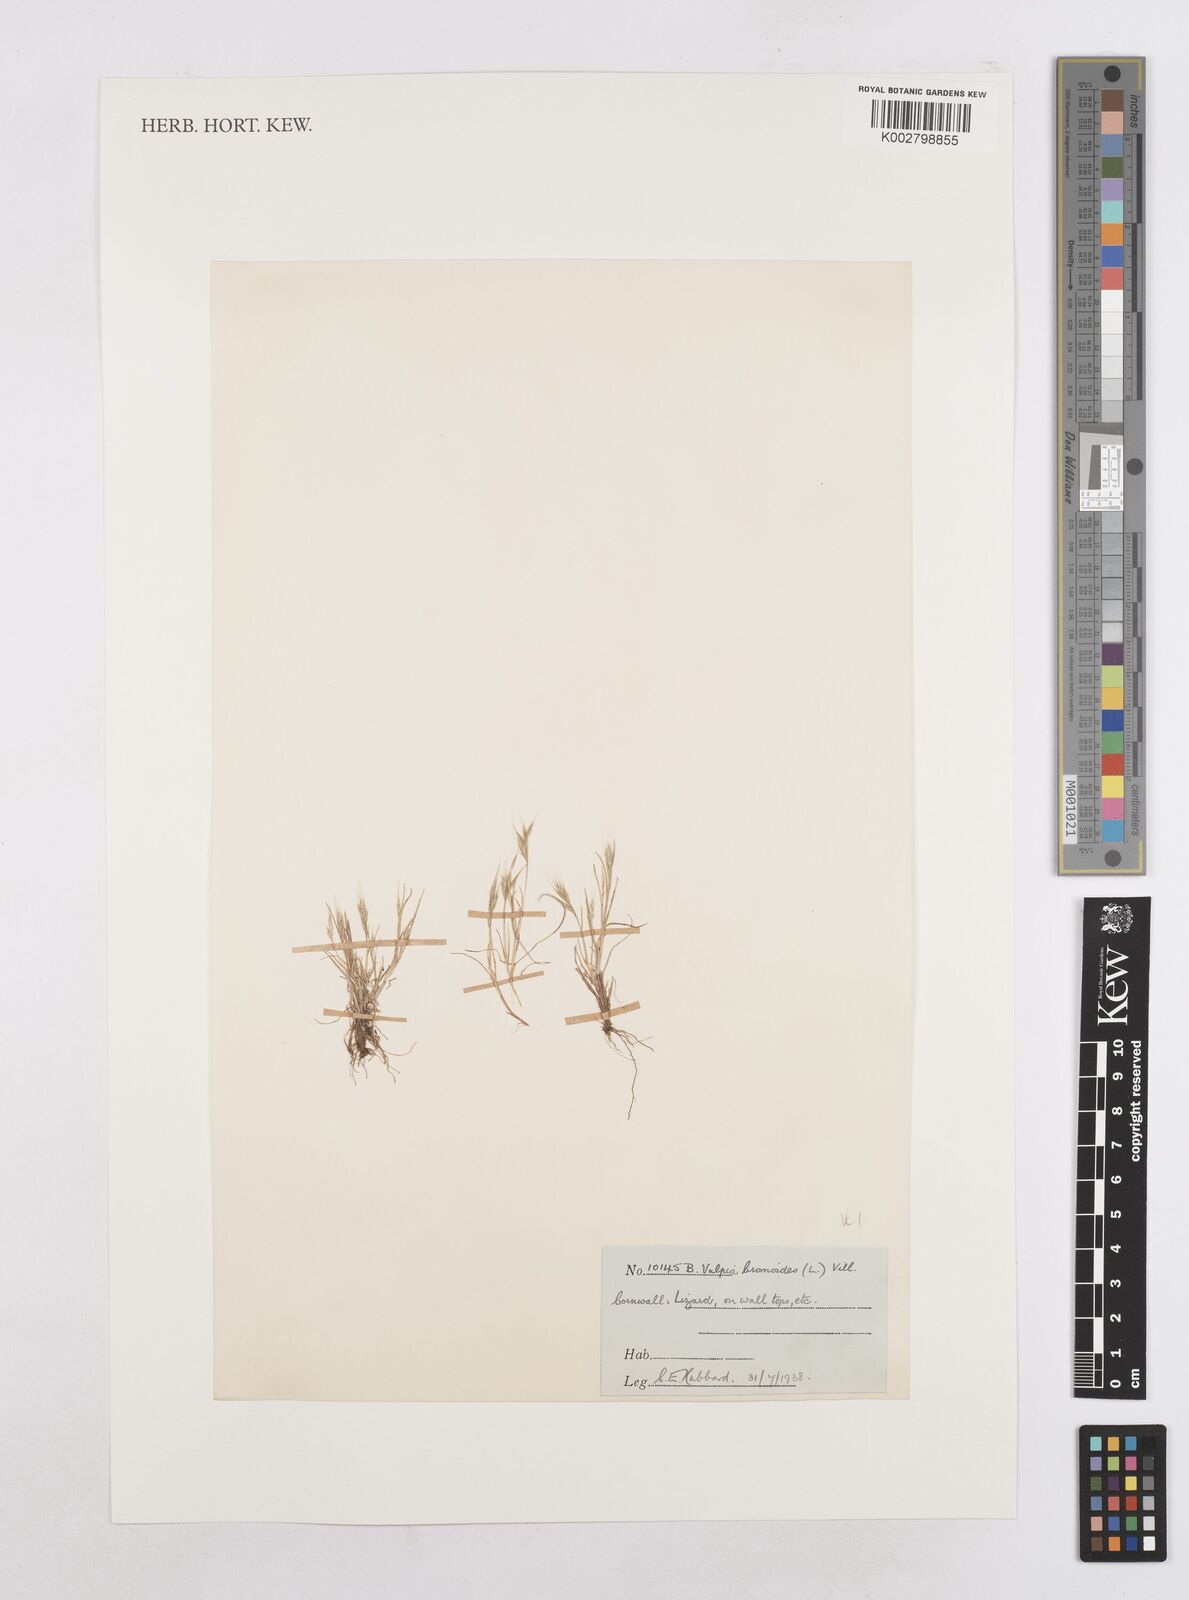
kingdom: Plantae
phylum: Tracheophyta
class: Liliopsida
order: Poales
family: Poaceae
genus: Festuca
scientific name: Festuca bromoides
